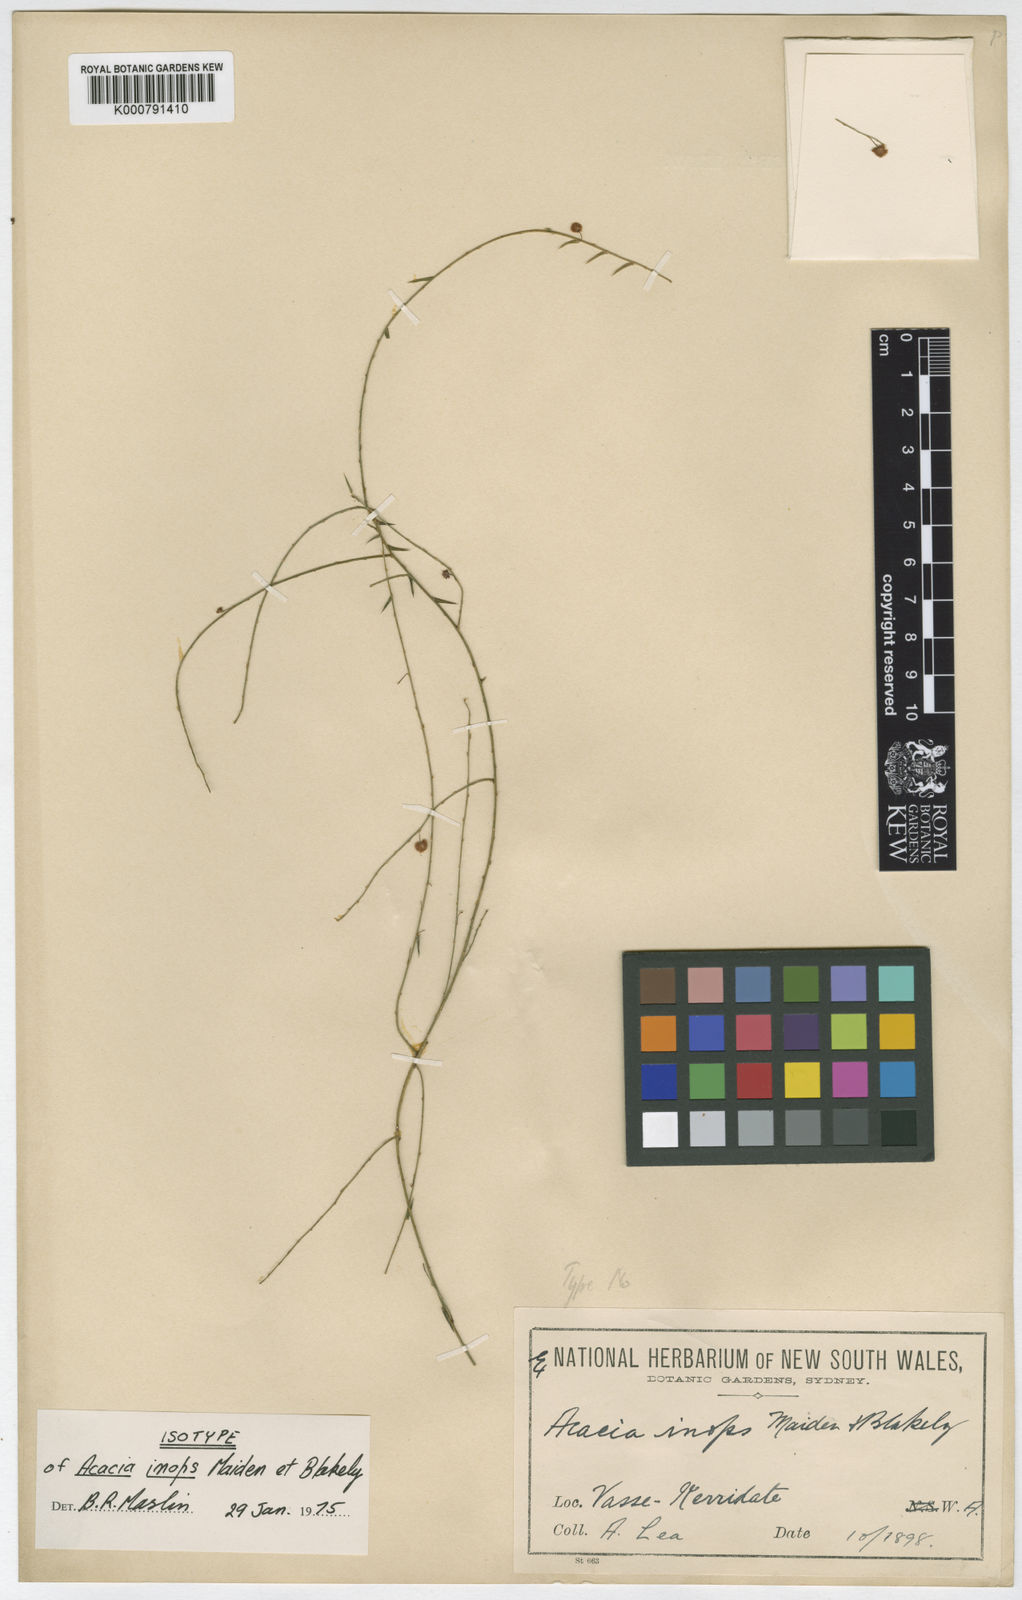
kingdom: Plantae
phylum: Tracheophyta
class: Magnoliopsida
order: Fabales
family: Fabaceae
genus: Acacia
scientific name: Acacia inops
